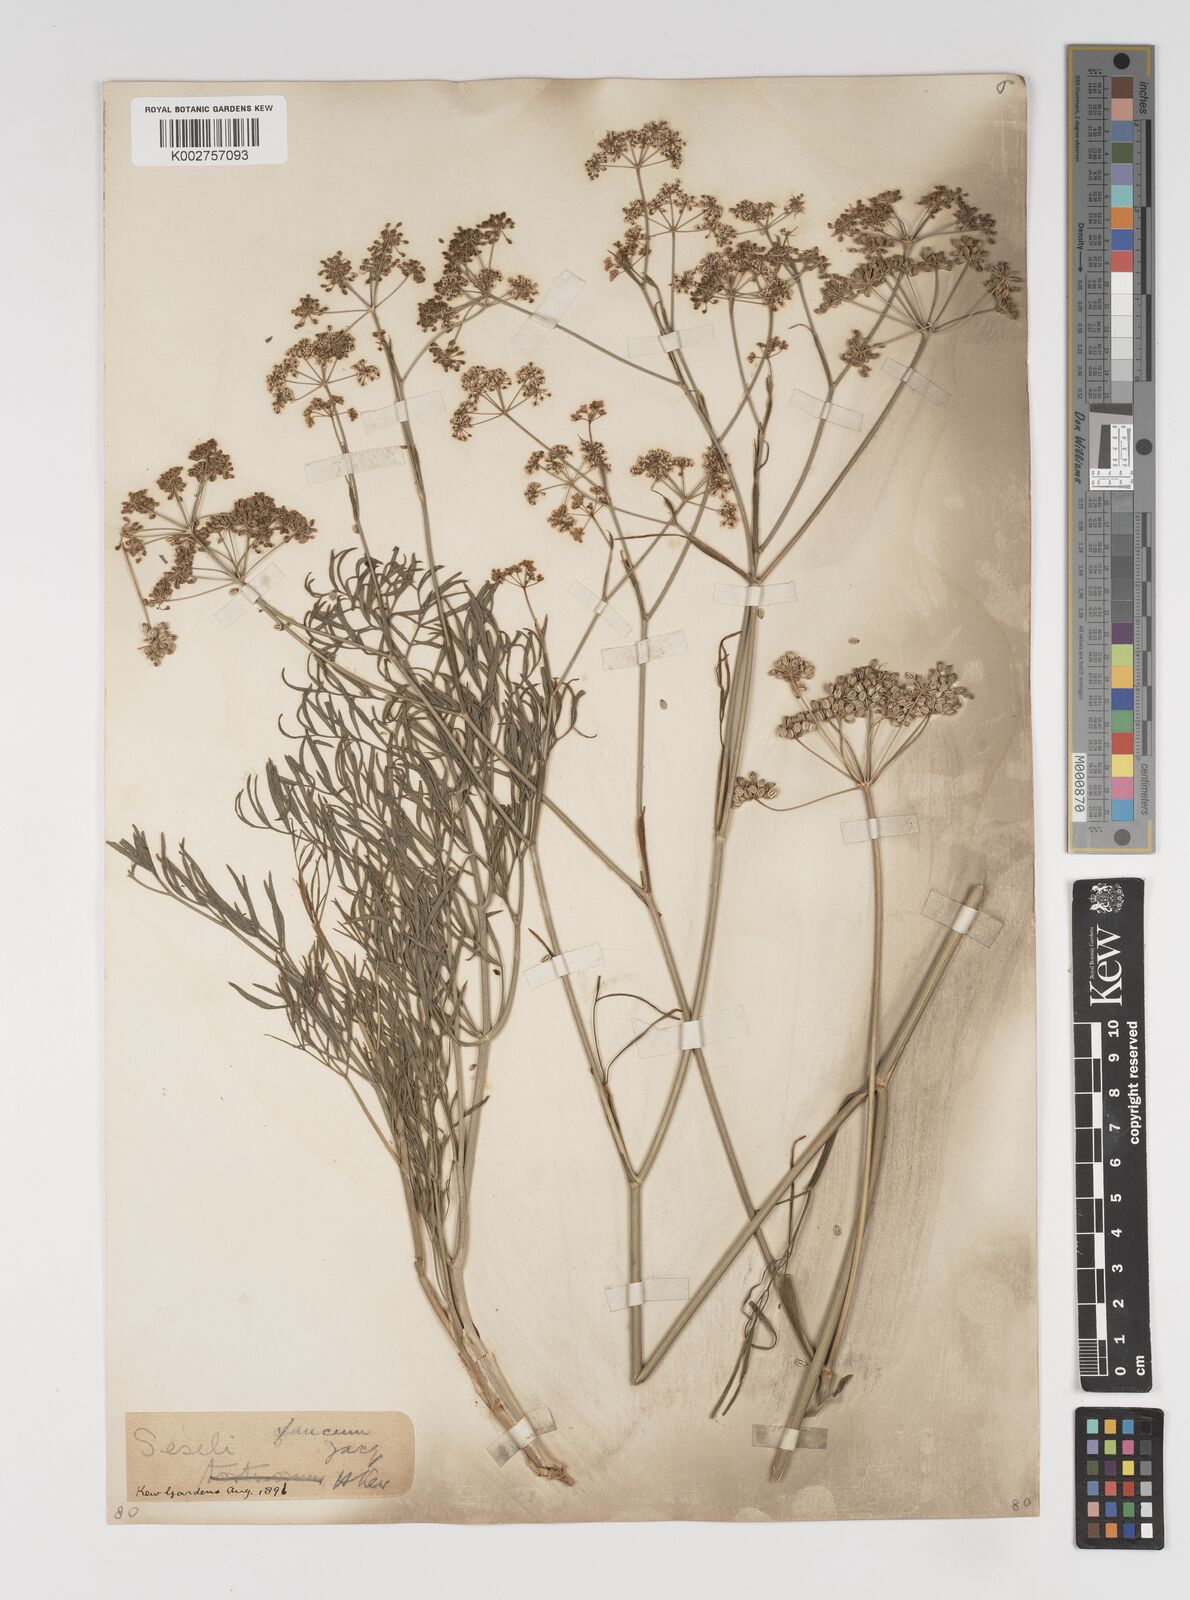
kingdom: Plantae
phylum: Tracheophyta
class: Magnoliopsida
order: Apiales
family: Apiaceae
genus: Seseli
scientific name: Seseli montanum
